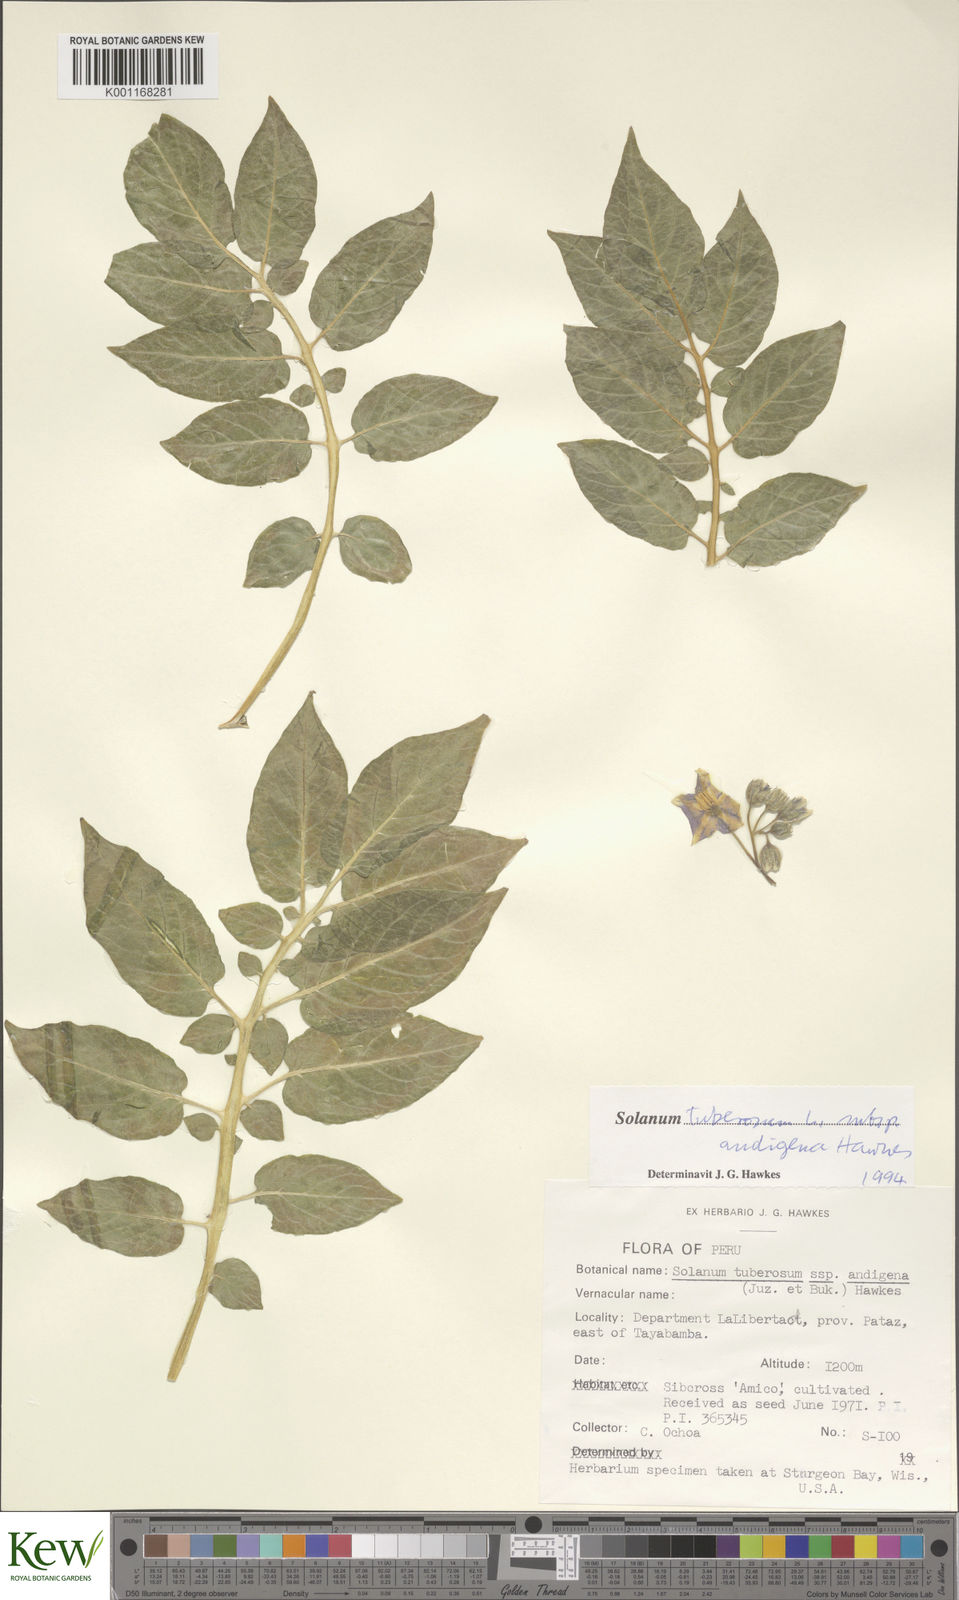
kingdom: Plantae
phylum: Tracheophyta
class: Magnoliopsida
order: Solanales
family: Solanaceae
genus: Solanum
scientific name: Solanum tuberosum
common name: Potato
